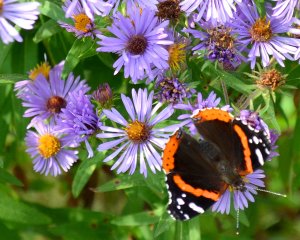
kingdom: Animalia
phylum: Arthropoda
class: Insecta
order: Lepidoptera
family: Nymphalidae
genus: Vanessa
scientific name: Vanessa atalanta
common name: Red Admiral
